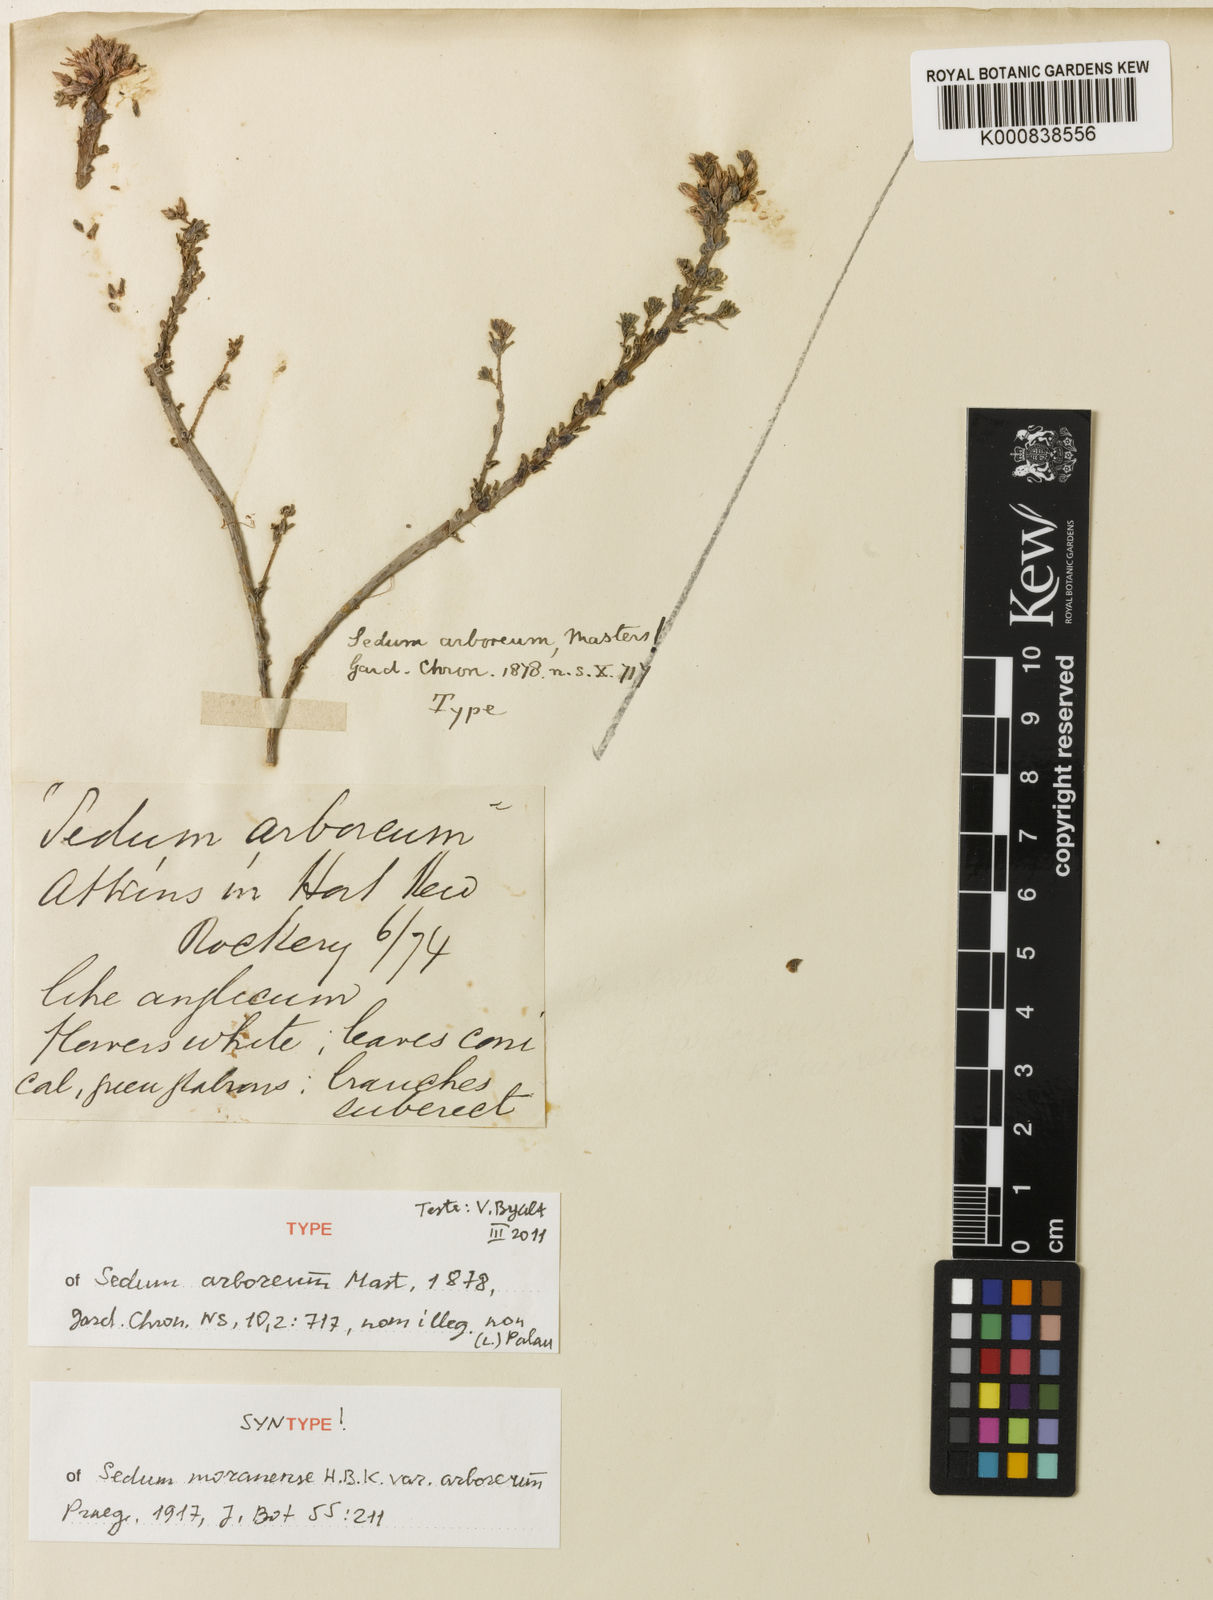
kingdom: Plantae
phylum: Tracheophyta
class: Magnoliopsida
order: Saxifragales
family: Crassulaceae
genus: Sedum
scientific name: Sedum moranense
